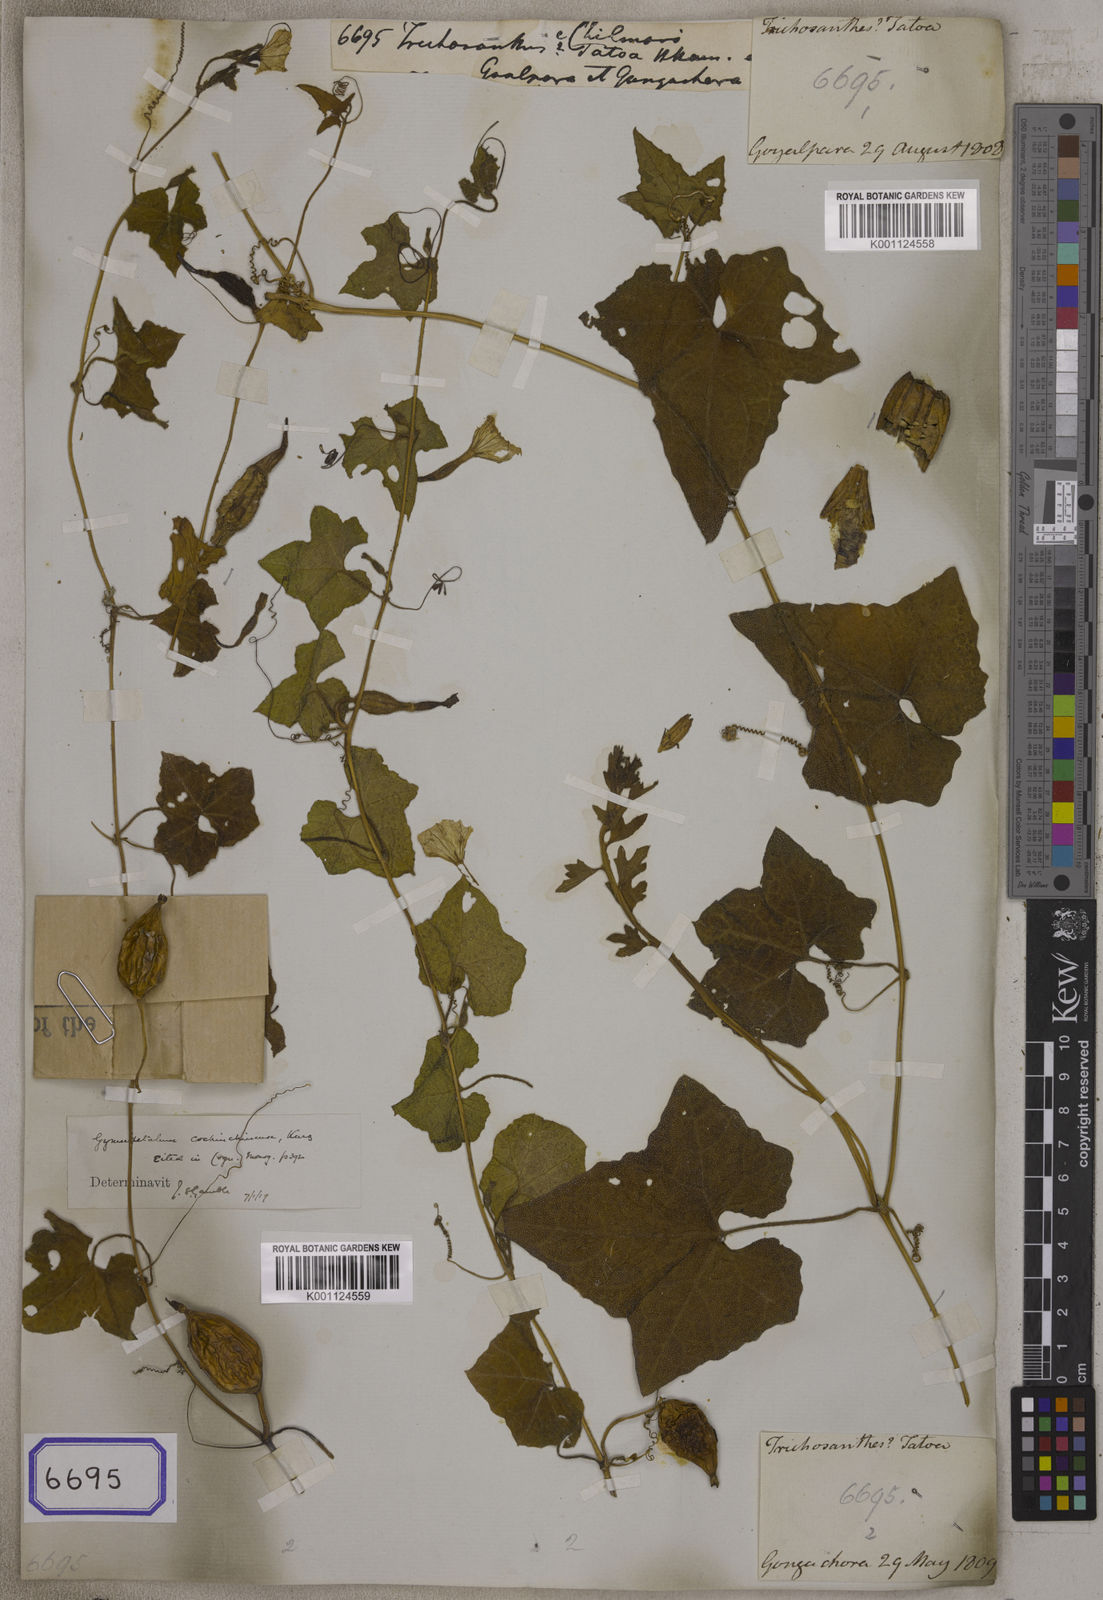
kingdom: Plantae
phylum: Tracheophyta
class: Magnoliopsida
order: Cucurbitales
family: Cucurbitaceae
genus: Trichosanthes
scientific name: Trichosanthes costata
